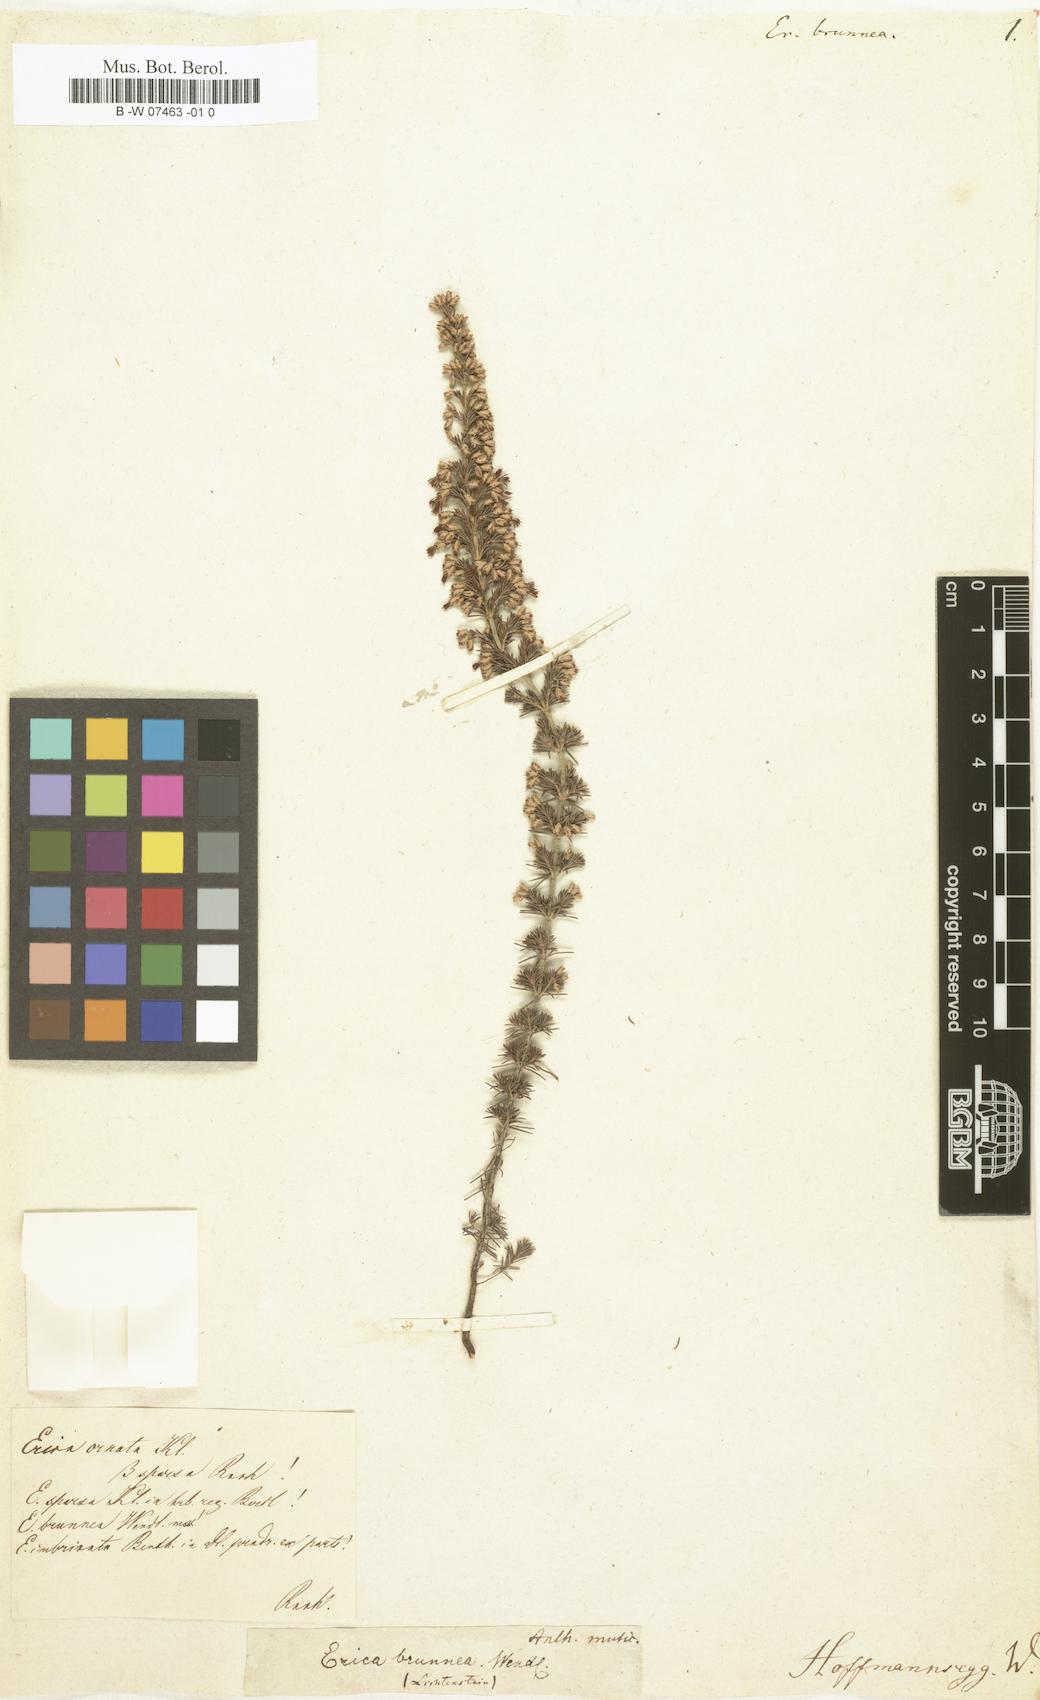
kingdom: Plantae
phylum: Tracheophyta
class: Magnoliopsida
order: Ericales
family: Ericaceae
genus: Erica
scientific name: Erica
